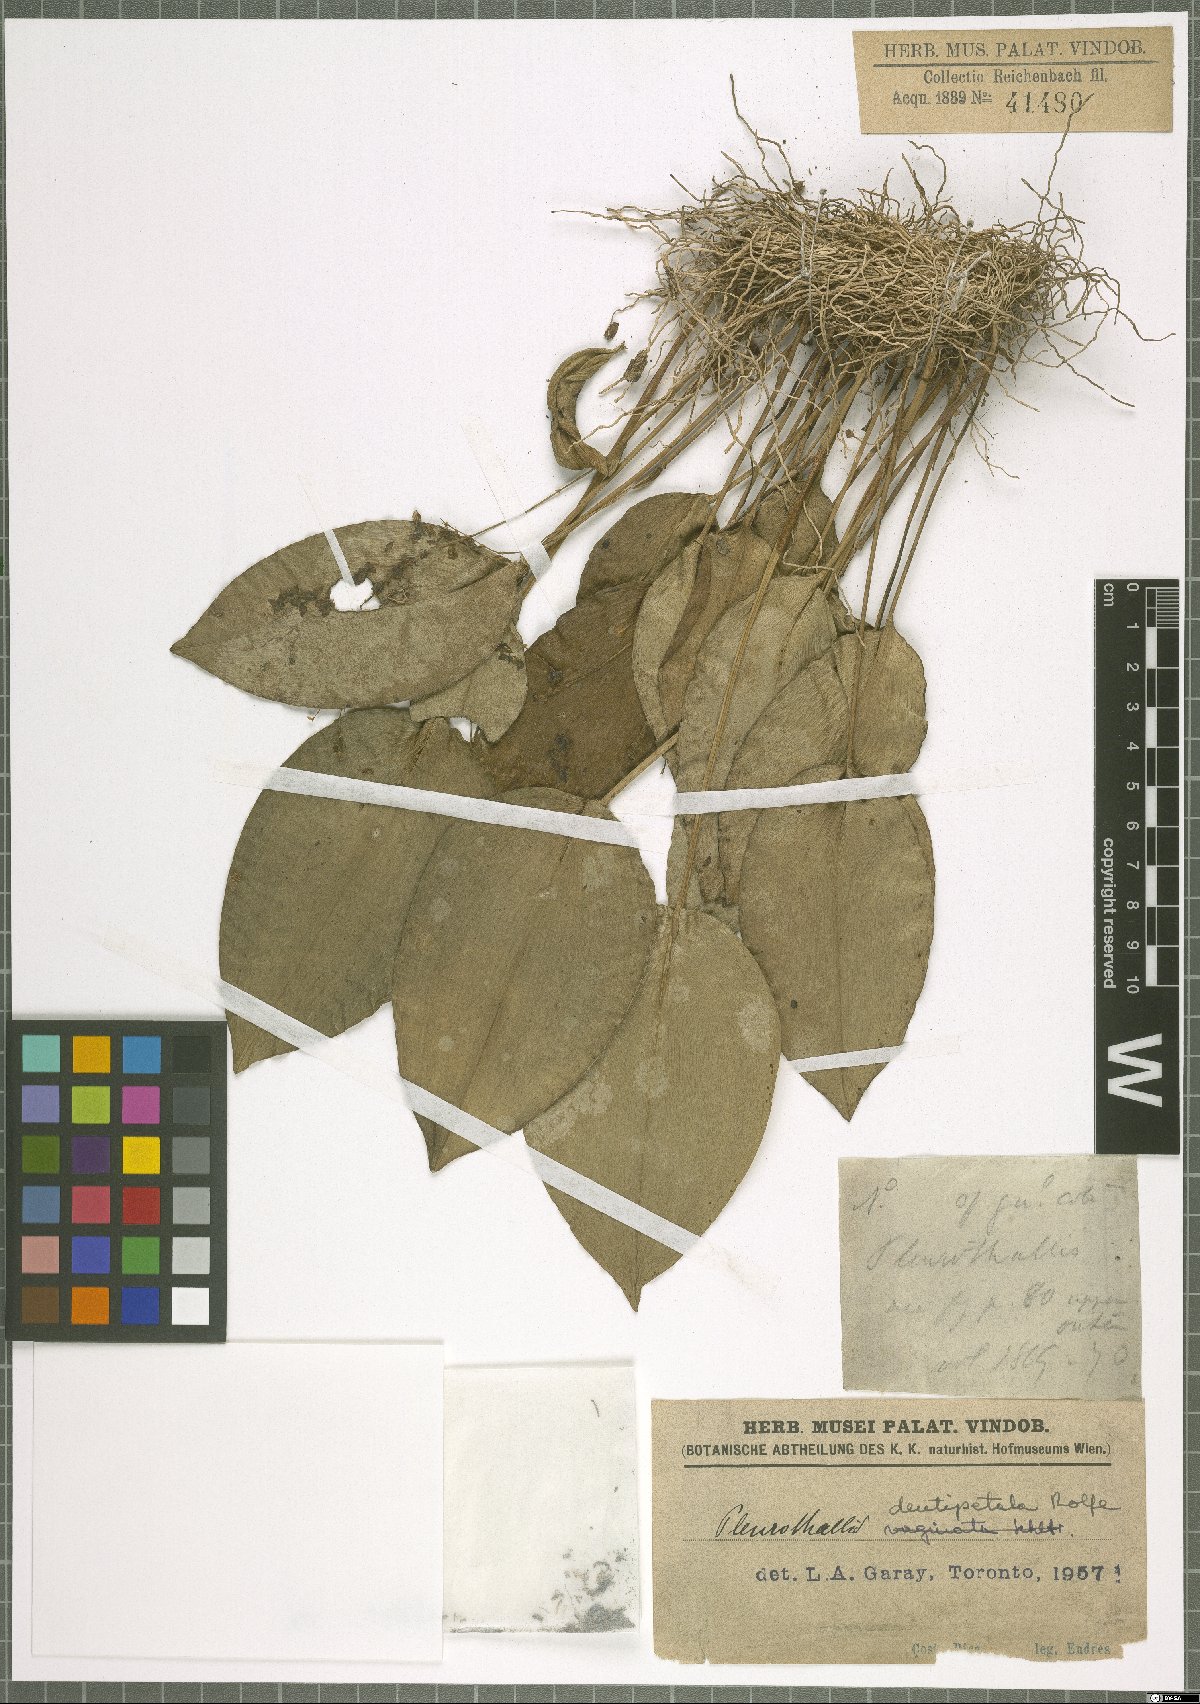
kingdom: Plantae
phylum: Tracheophyta
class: Liliopsida
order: Asparagales
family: Orchidaceae
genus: Pleurothallis
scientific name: Pleurothallis dentipetala
